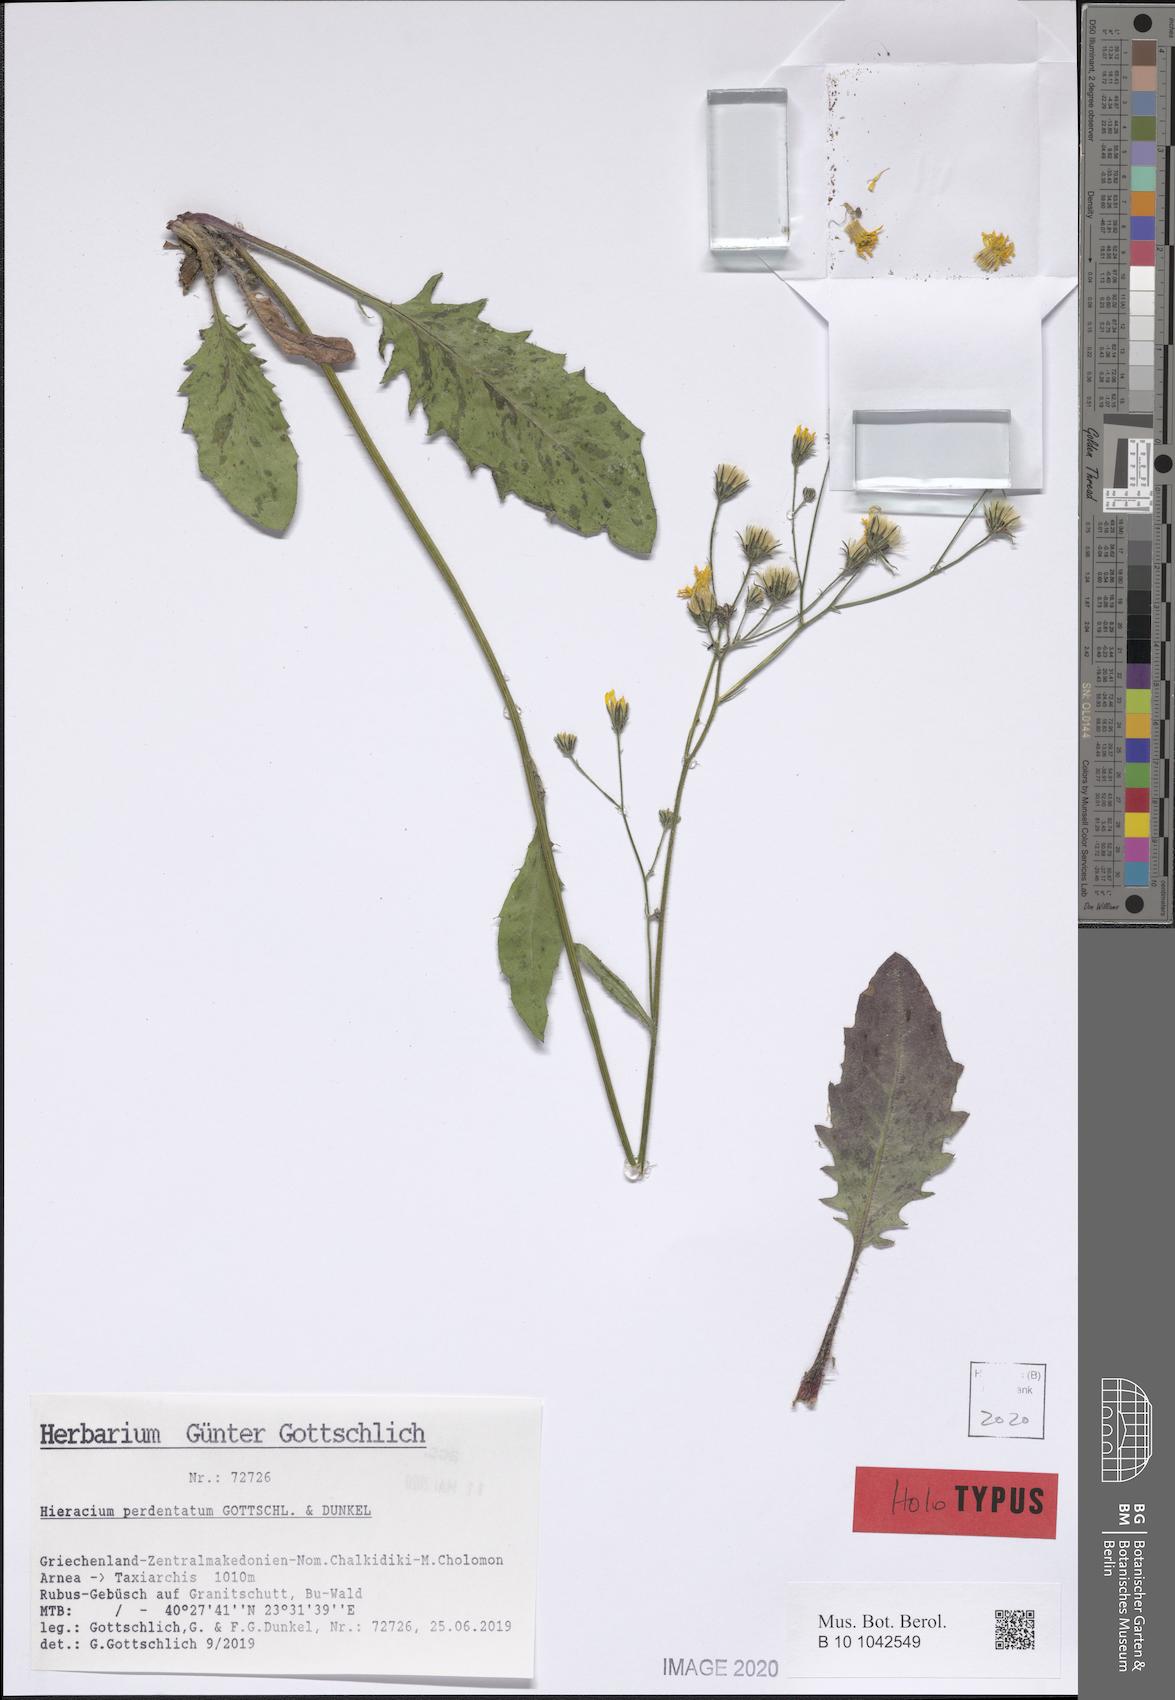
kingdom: Plantae
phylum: Tracheophyta
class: Magnoliopsida
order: Asterales
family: Asteraceae
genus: Hieracium
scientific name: Hieracium perdentatum
